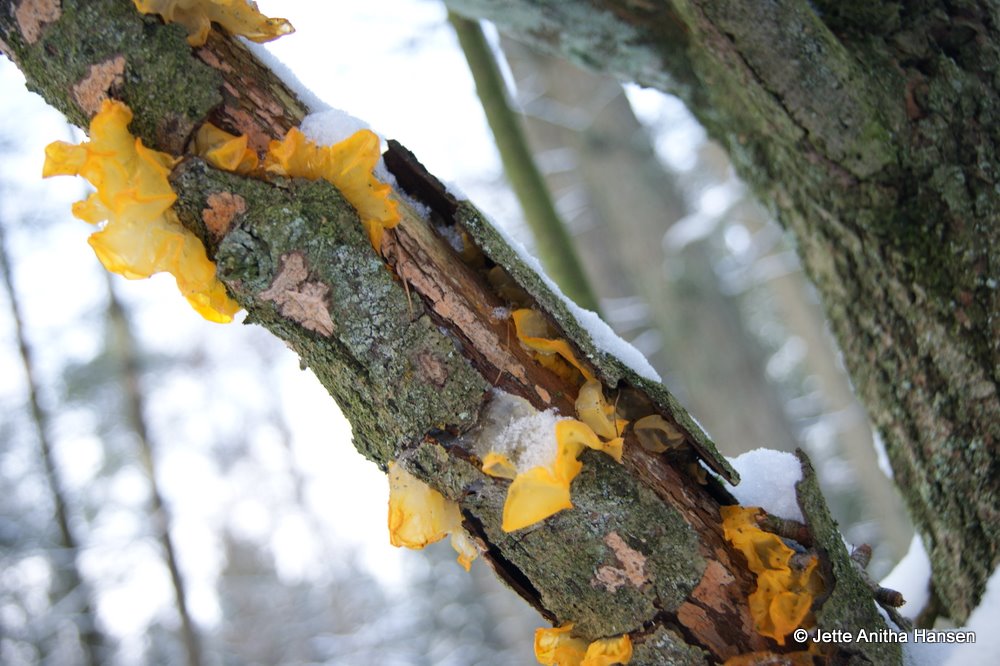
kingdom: Fungi
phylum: Basidiomycota
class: Tremellomycetes
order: Tremellales
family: Tremellaceae
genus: Tremella
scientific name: Tremella mesenterica
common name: gul bævresvamp
